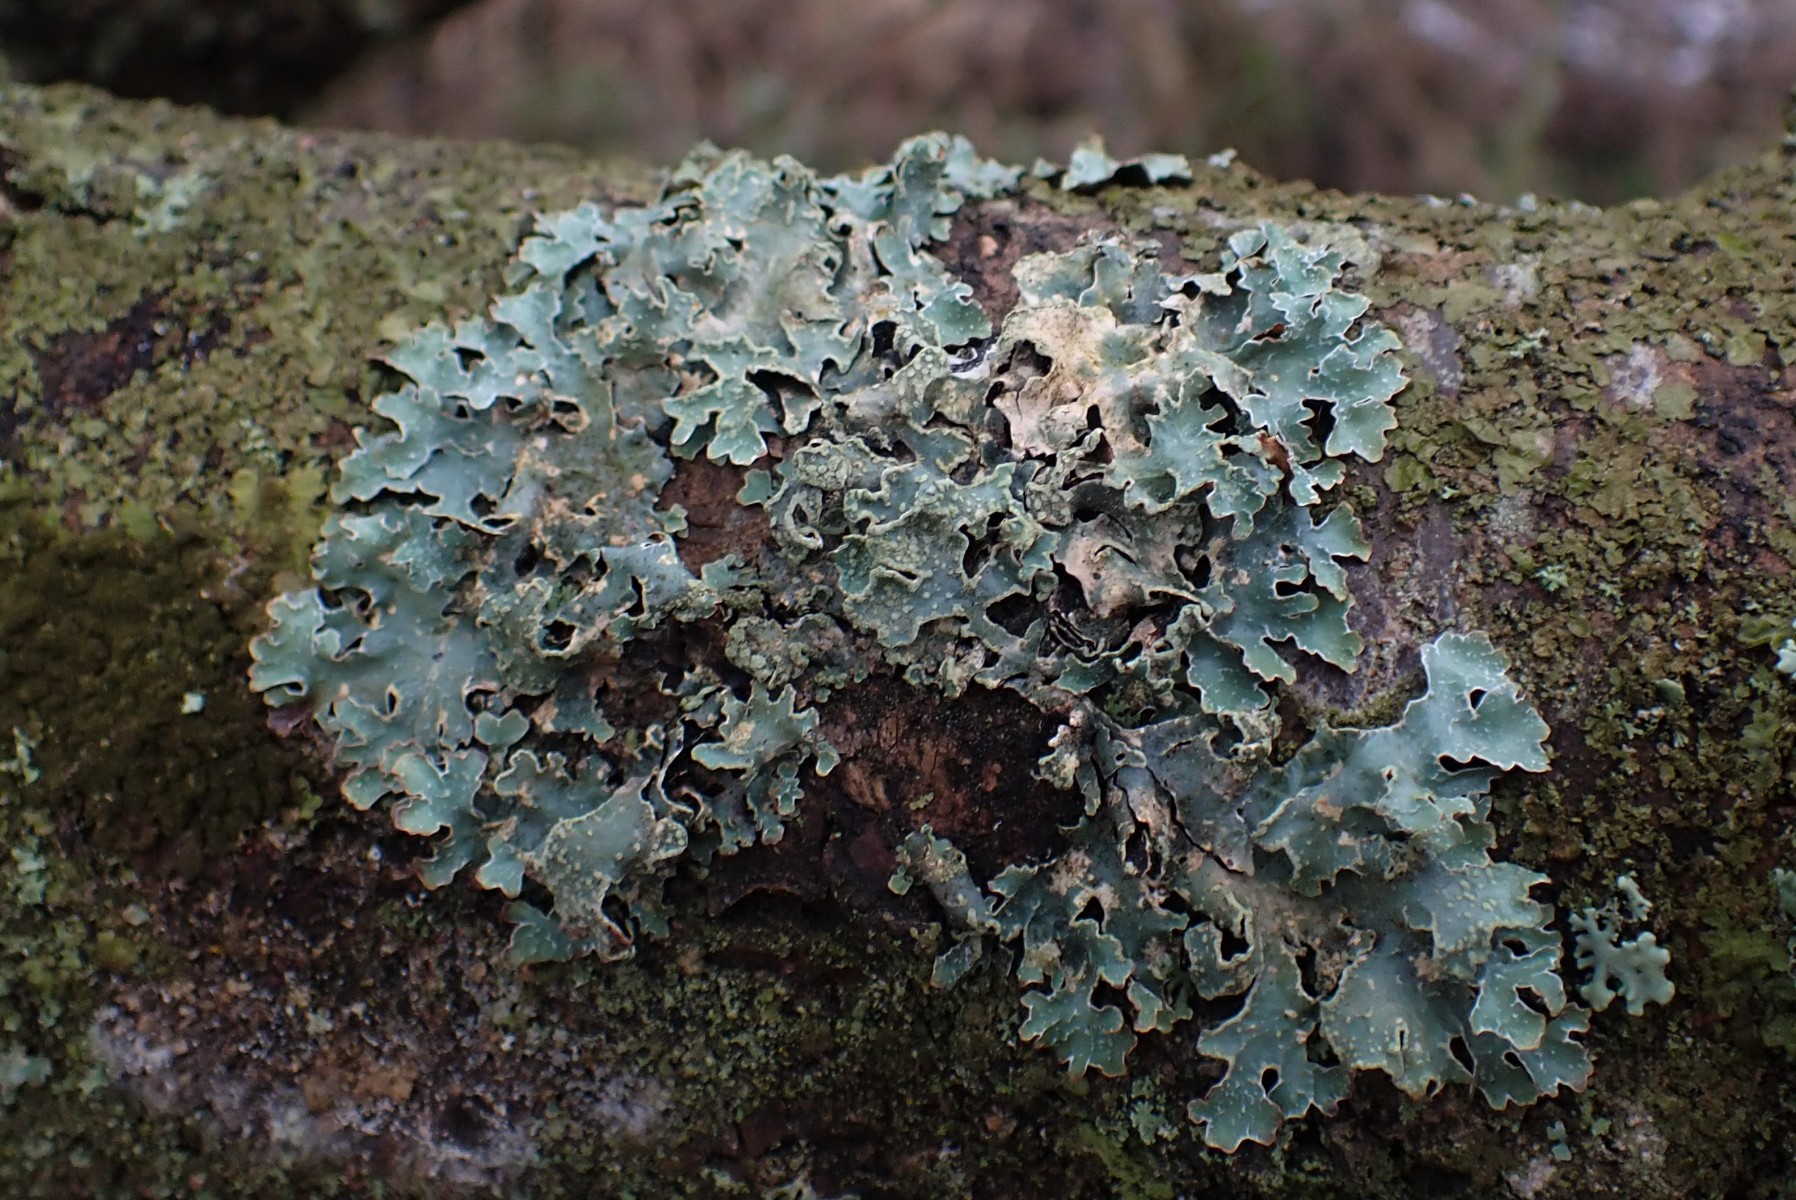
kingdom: Fungi
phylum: Ascomycota
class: Lecanoromycetes
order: Lecanorales
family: Parmeliaceae
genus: Parmelia
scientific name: Parmelia sulcata
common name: rynket skållav
